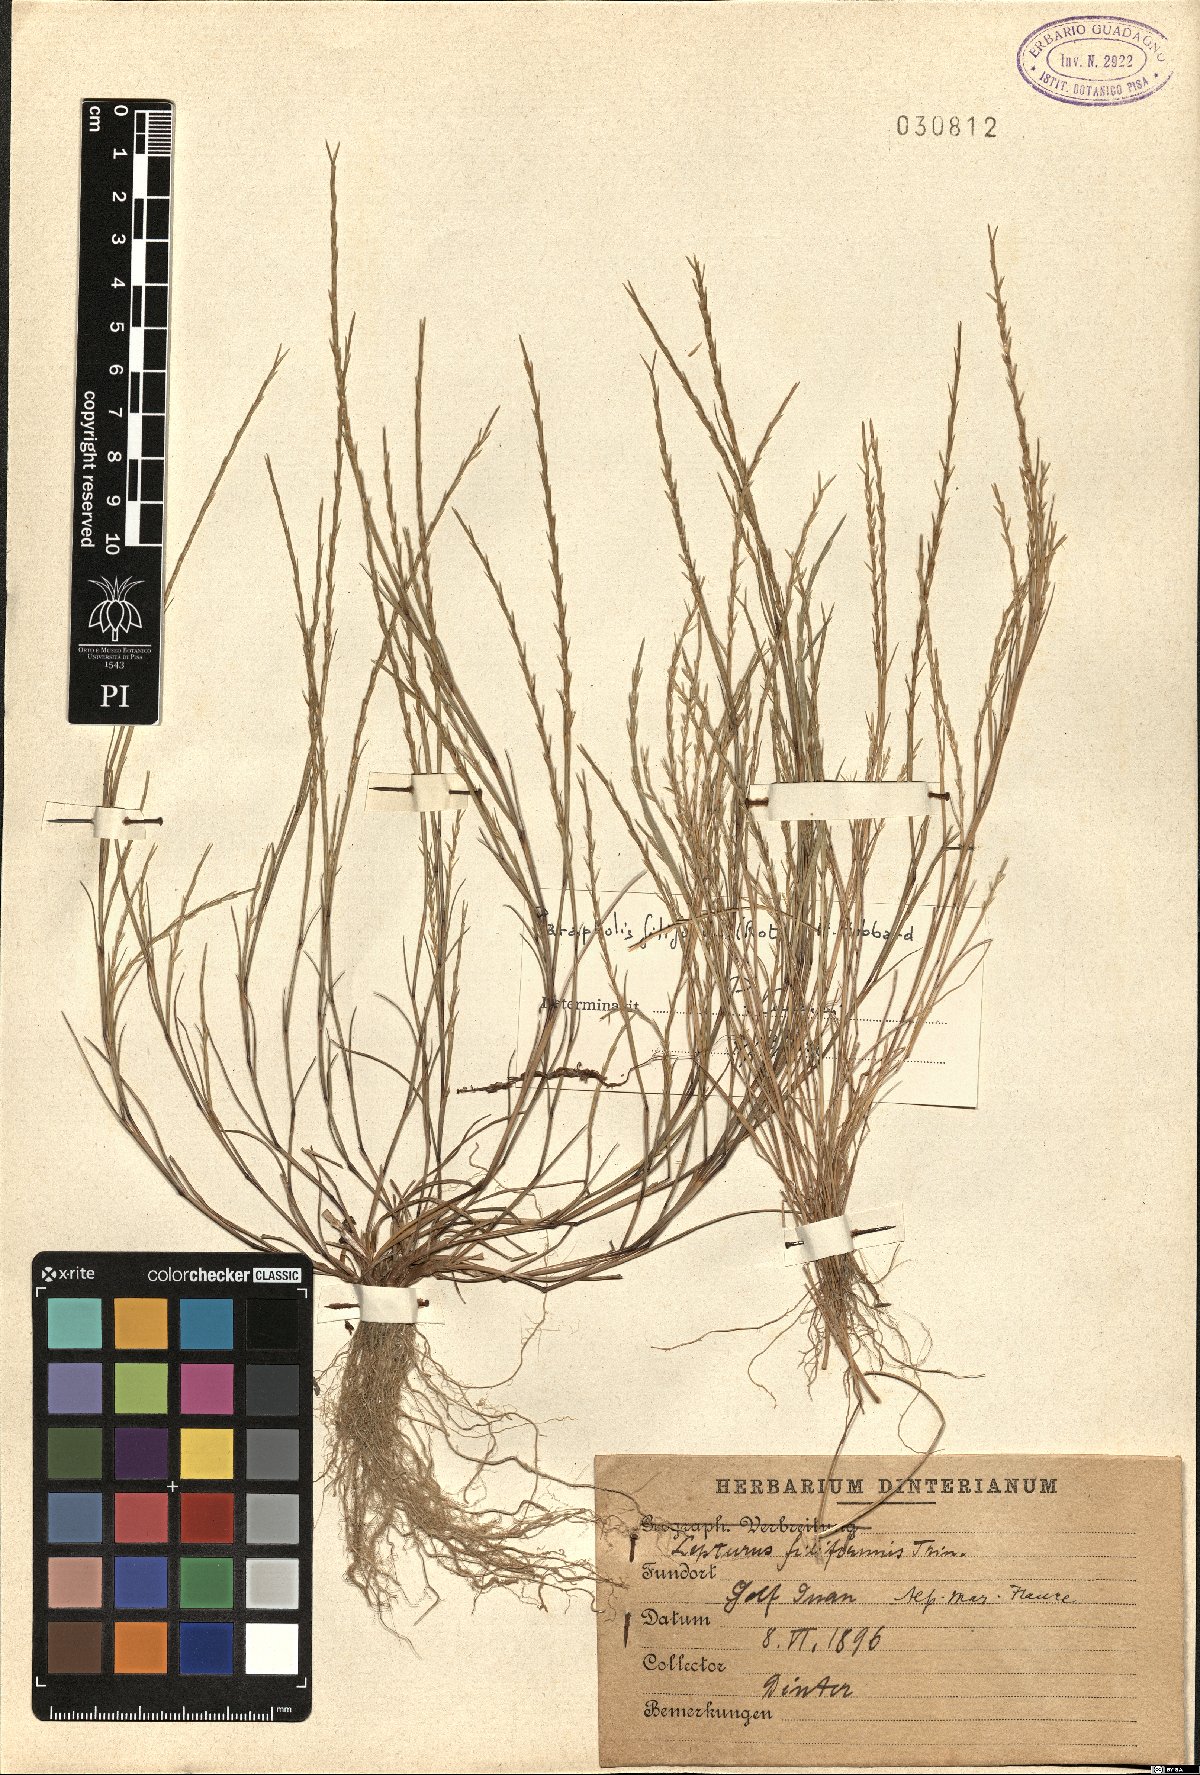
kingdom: Plantae
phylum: Tracheophyta
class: Liliopsida
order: Poales
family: Poaceae
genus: Parapholis
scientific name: Parapholis filiformis
